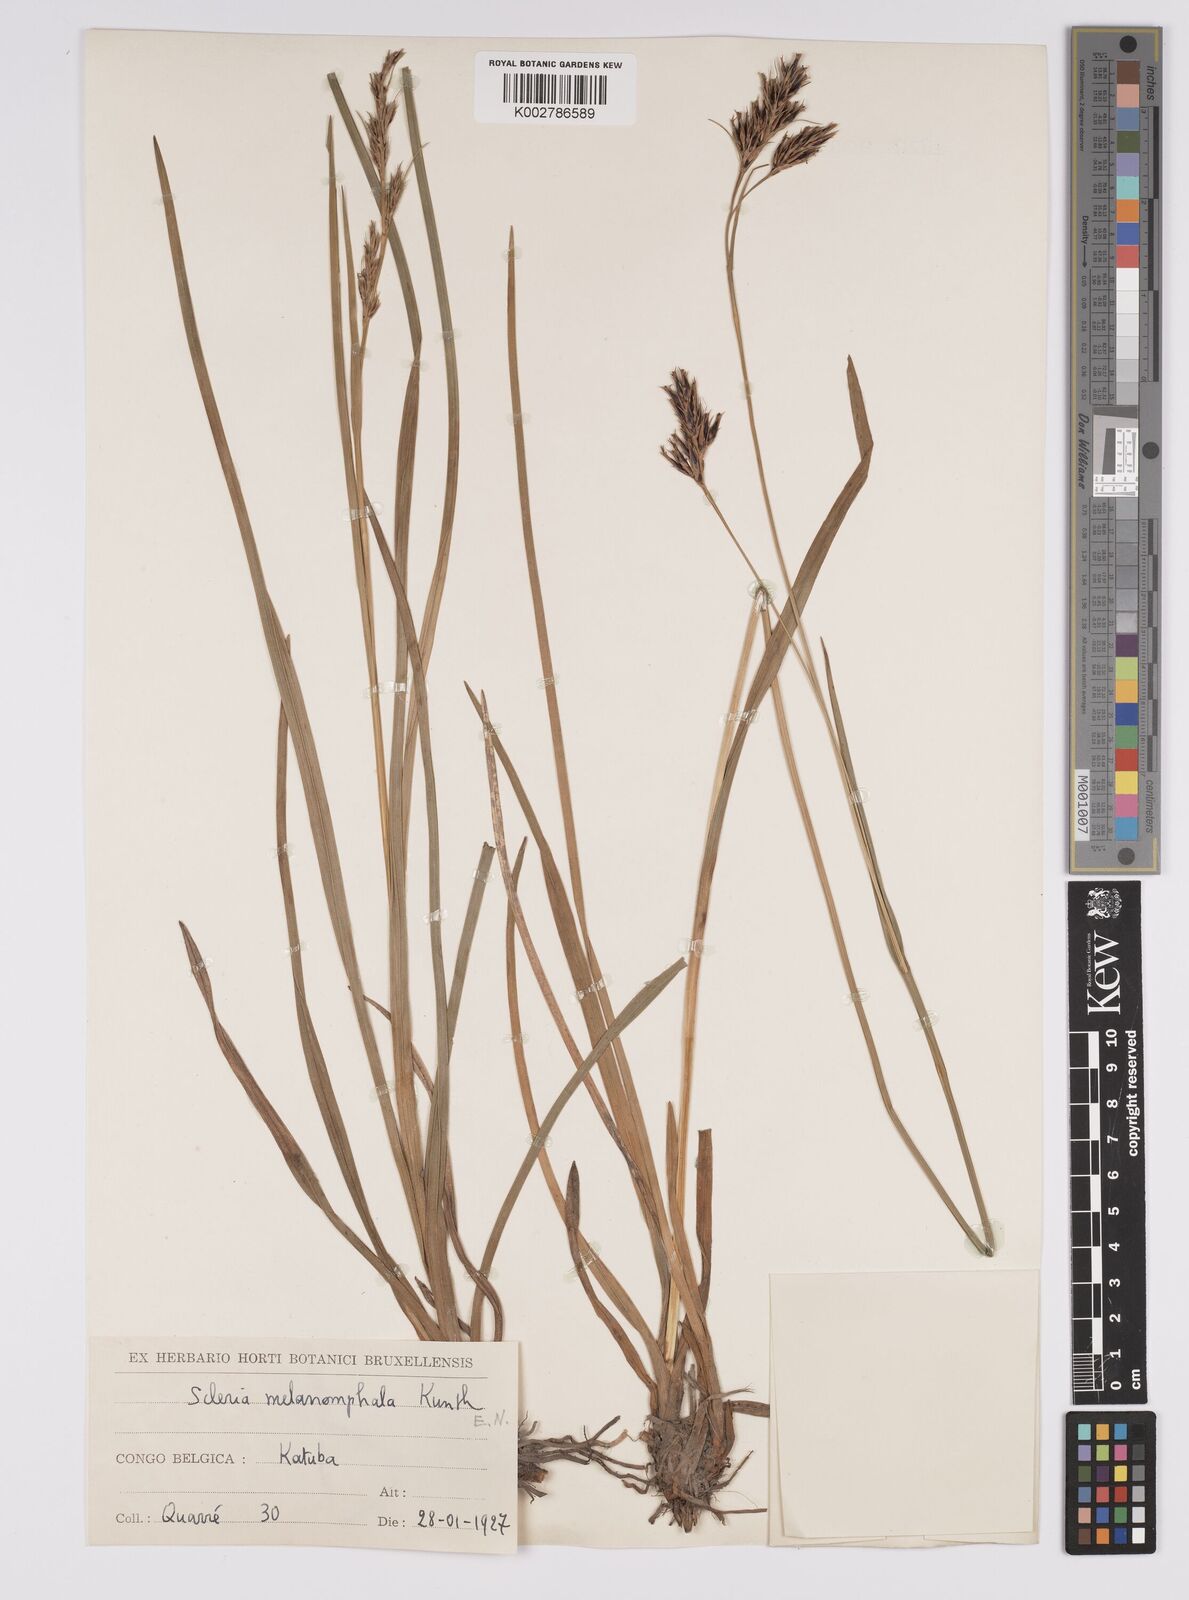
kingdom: Plantae
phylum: Tracheophyta
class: Liliopsida
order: Poales
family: Cyperaceae
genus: Scleria
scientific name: Scleria melanomphala
